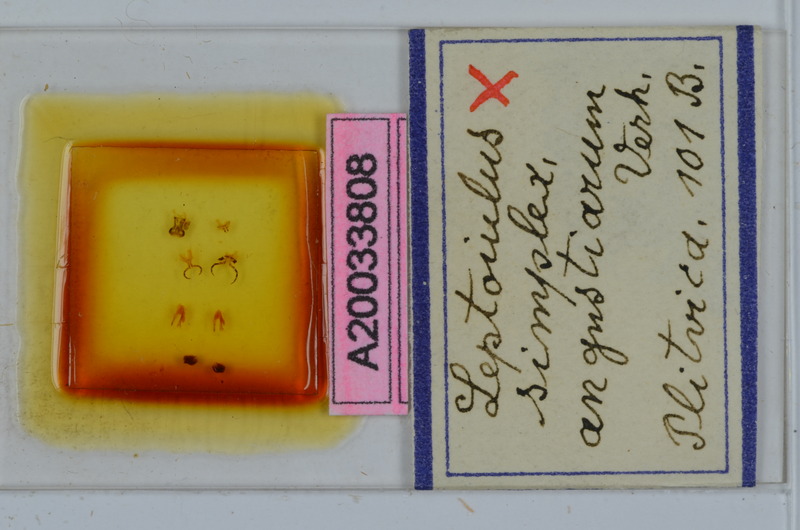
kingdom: Animalia
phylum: Arthropoda
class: Diplopoda
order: Julida
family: Julidae
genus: Leptoiulus
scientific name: Leptoiulus simplex
